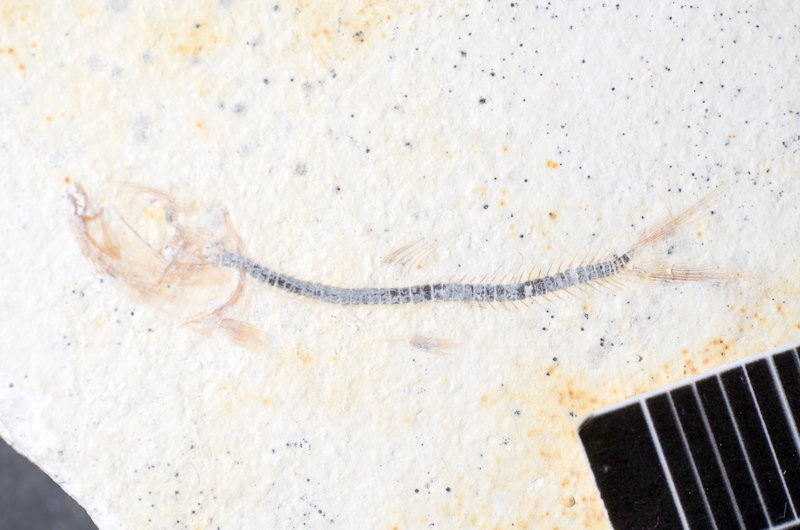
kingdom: Animalia
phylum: Chordata
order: Salmoniformes
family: Orthogonikleithridae
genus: Orthogonikleithrus
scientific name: Orthogonikleithrus hoelli
